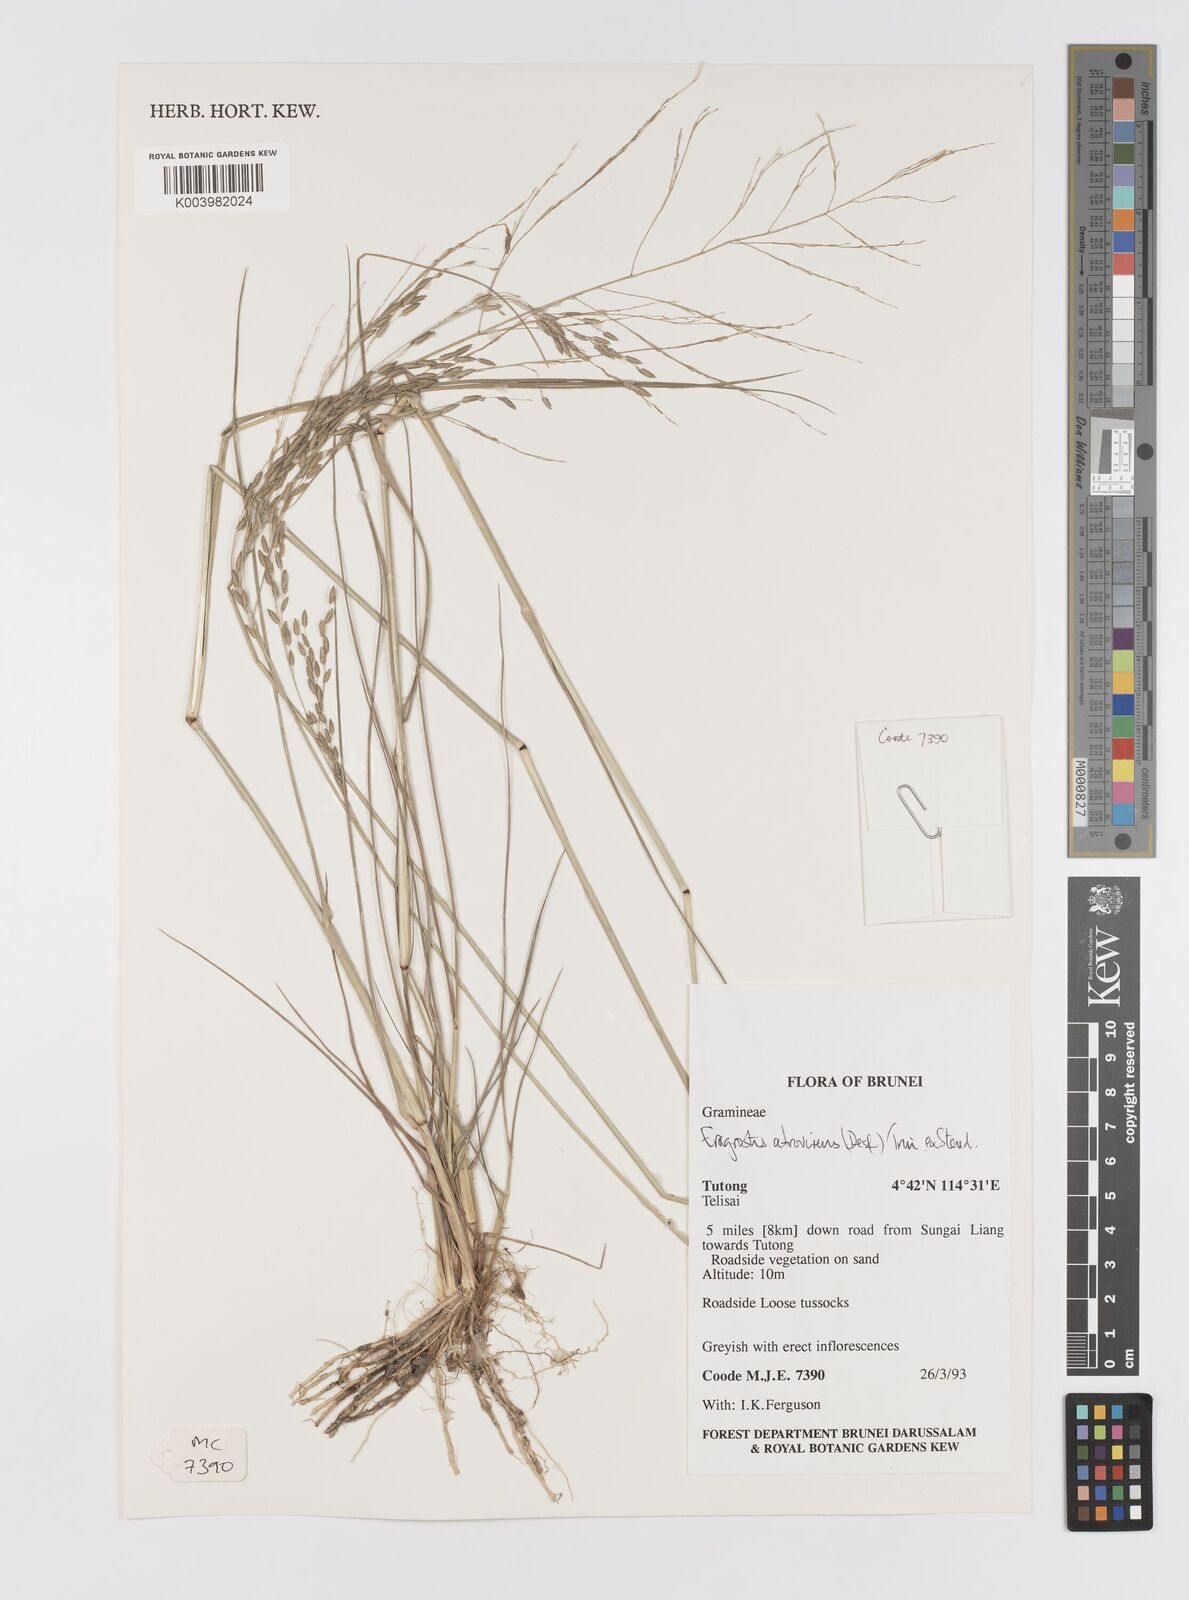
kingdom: Plantae
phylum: Tracheophyta
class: Liliopsida
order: Poales
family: Poaceae
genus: Eragrostis
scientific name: Eragrostis atrovirens
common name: Thalia lovegrass
